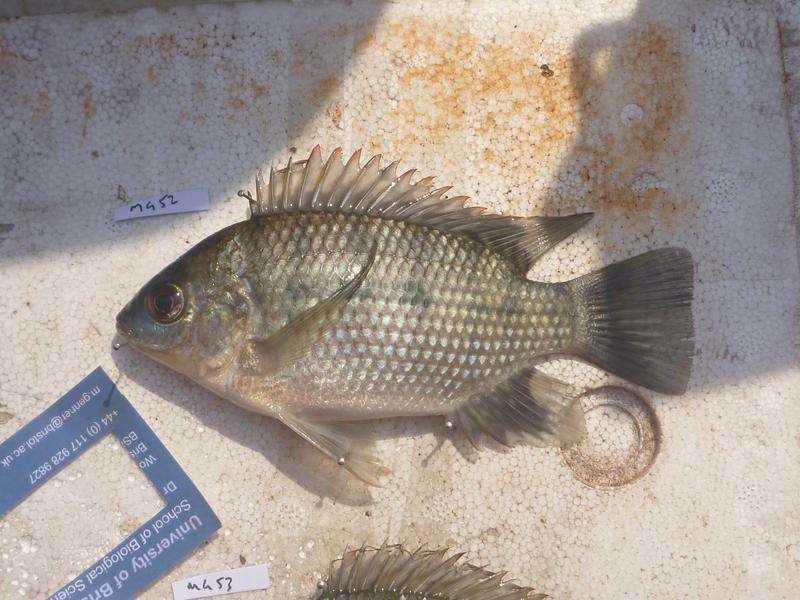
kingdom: Animalia
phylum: Chordata
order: Perciformes
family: Cichlidae
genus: Oreochromis
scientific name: Oreochromis upembae
